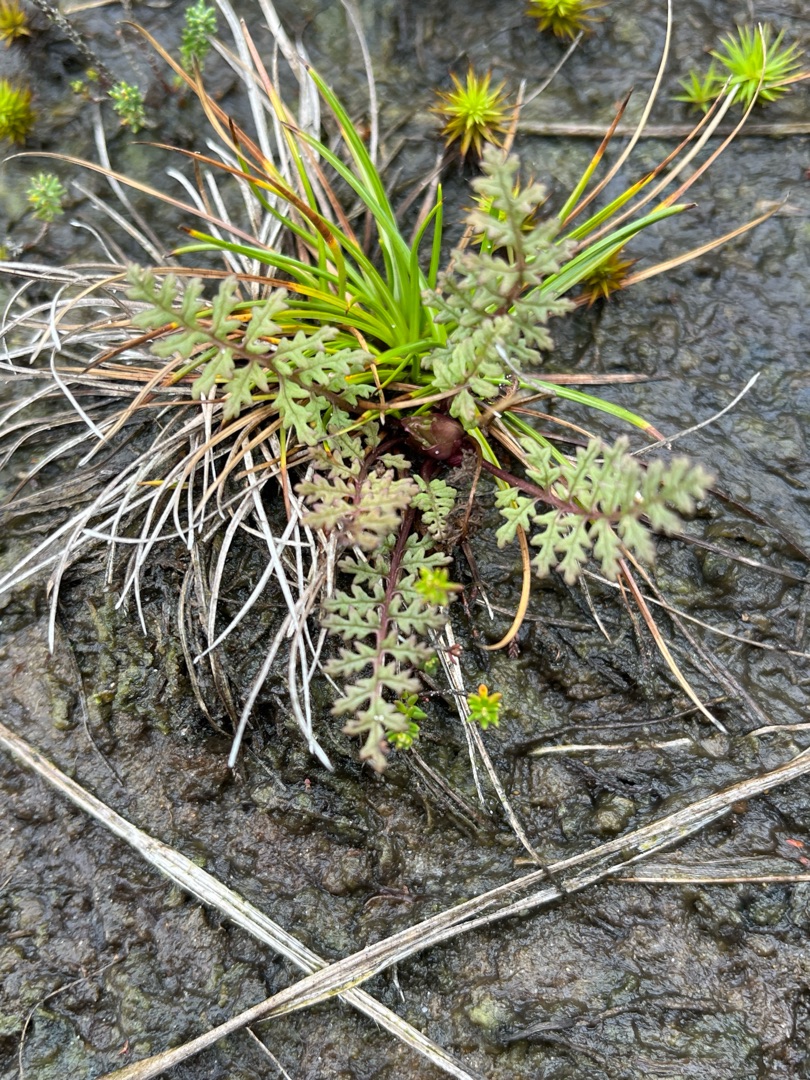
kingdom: Plantae
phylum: Tracheophyta
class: Magnoliopsida
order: Lamiales
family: Orobanchaceae
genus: Pedicularis
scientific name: Pedicularis sylvatica
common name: Mose-troldurt
